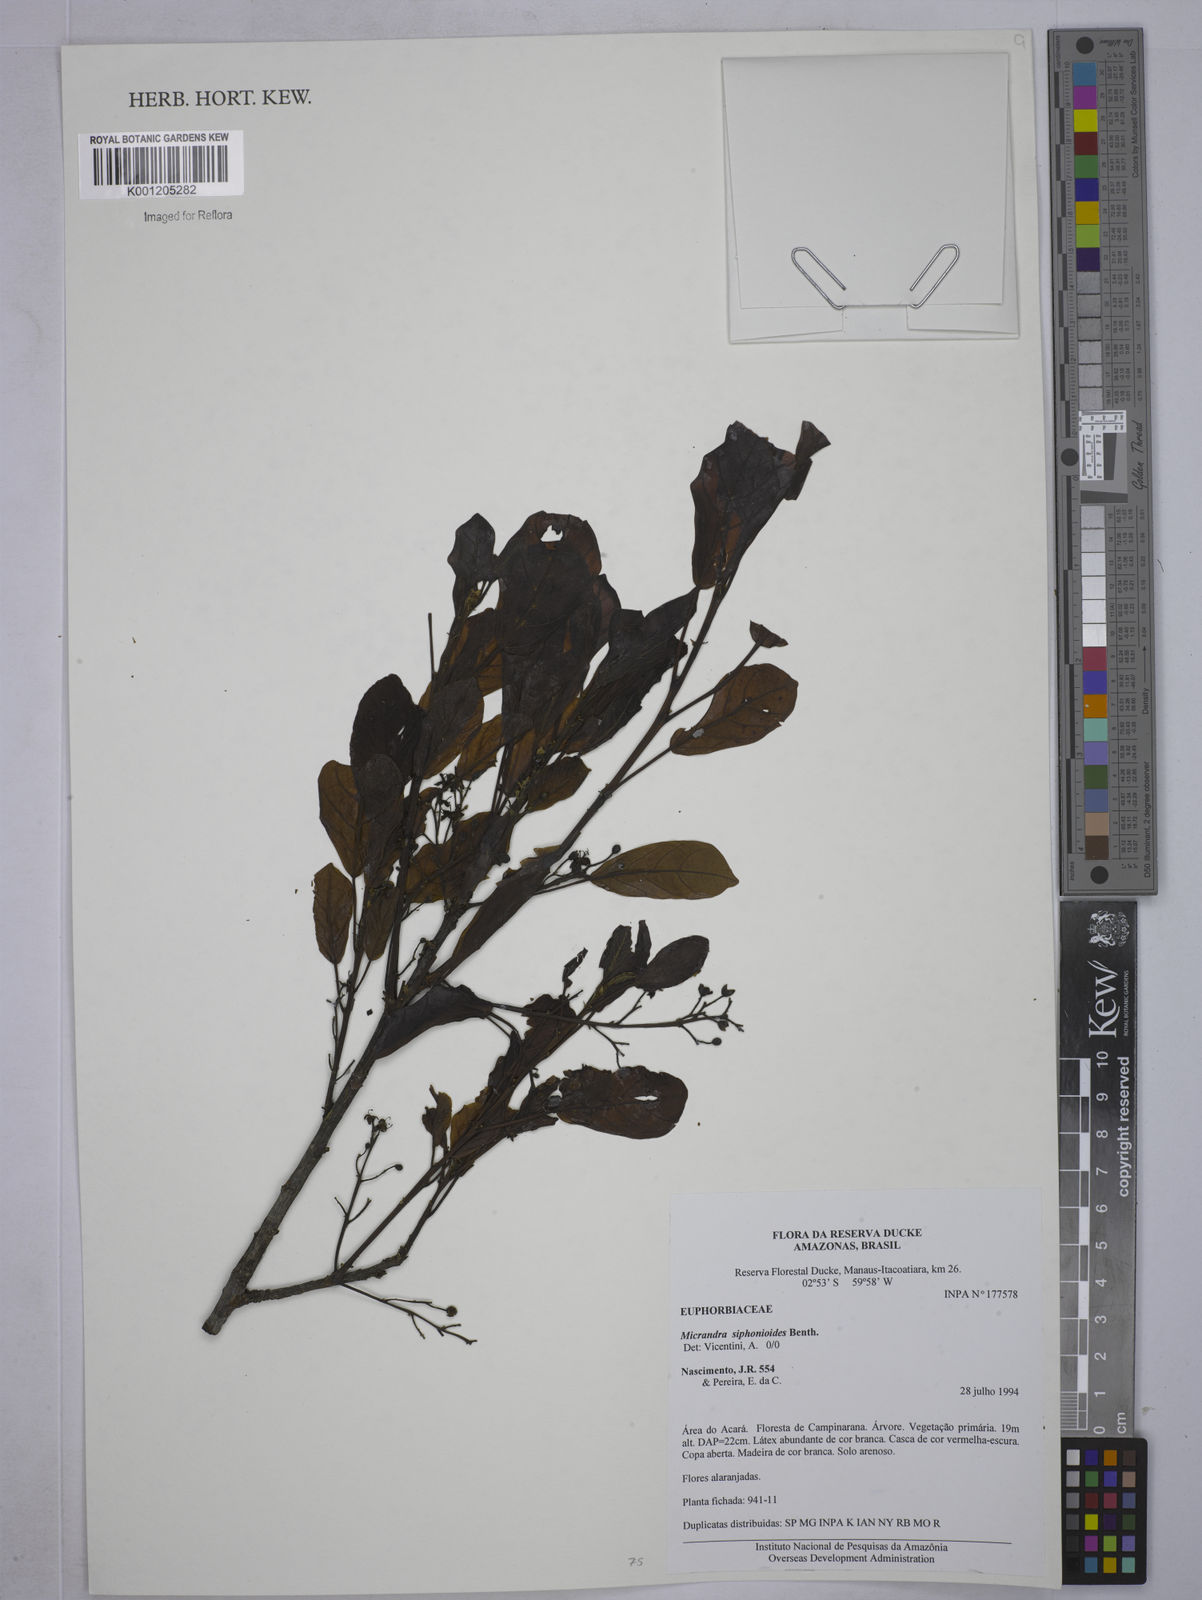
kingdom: Plantae
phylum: Tracheophyta
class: Magnoliopsida
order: Malpighiales
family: Euphorbiaceae
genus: Micrandra
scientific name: Micrandra siphonioides
